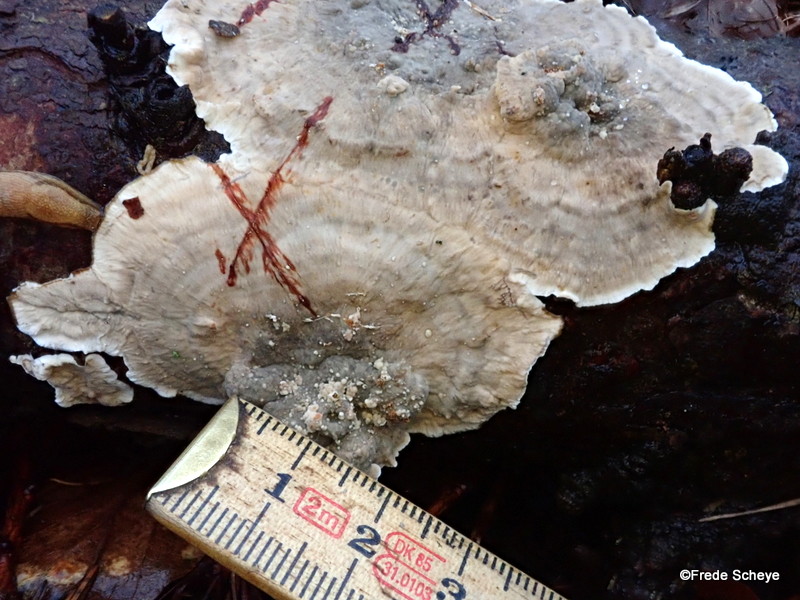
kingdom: Fungi
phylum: Basidiomycota
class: Agaricomycetes
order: Russulales
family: Stereaceae
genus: Stereum
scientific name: Stereum sanguinolentum
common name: blødende lædersvamp
